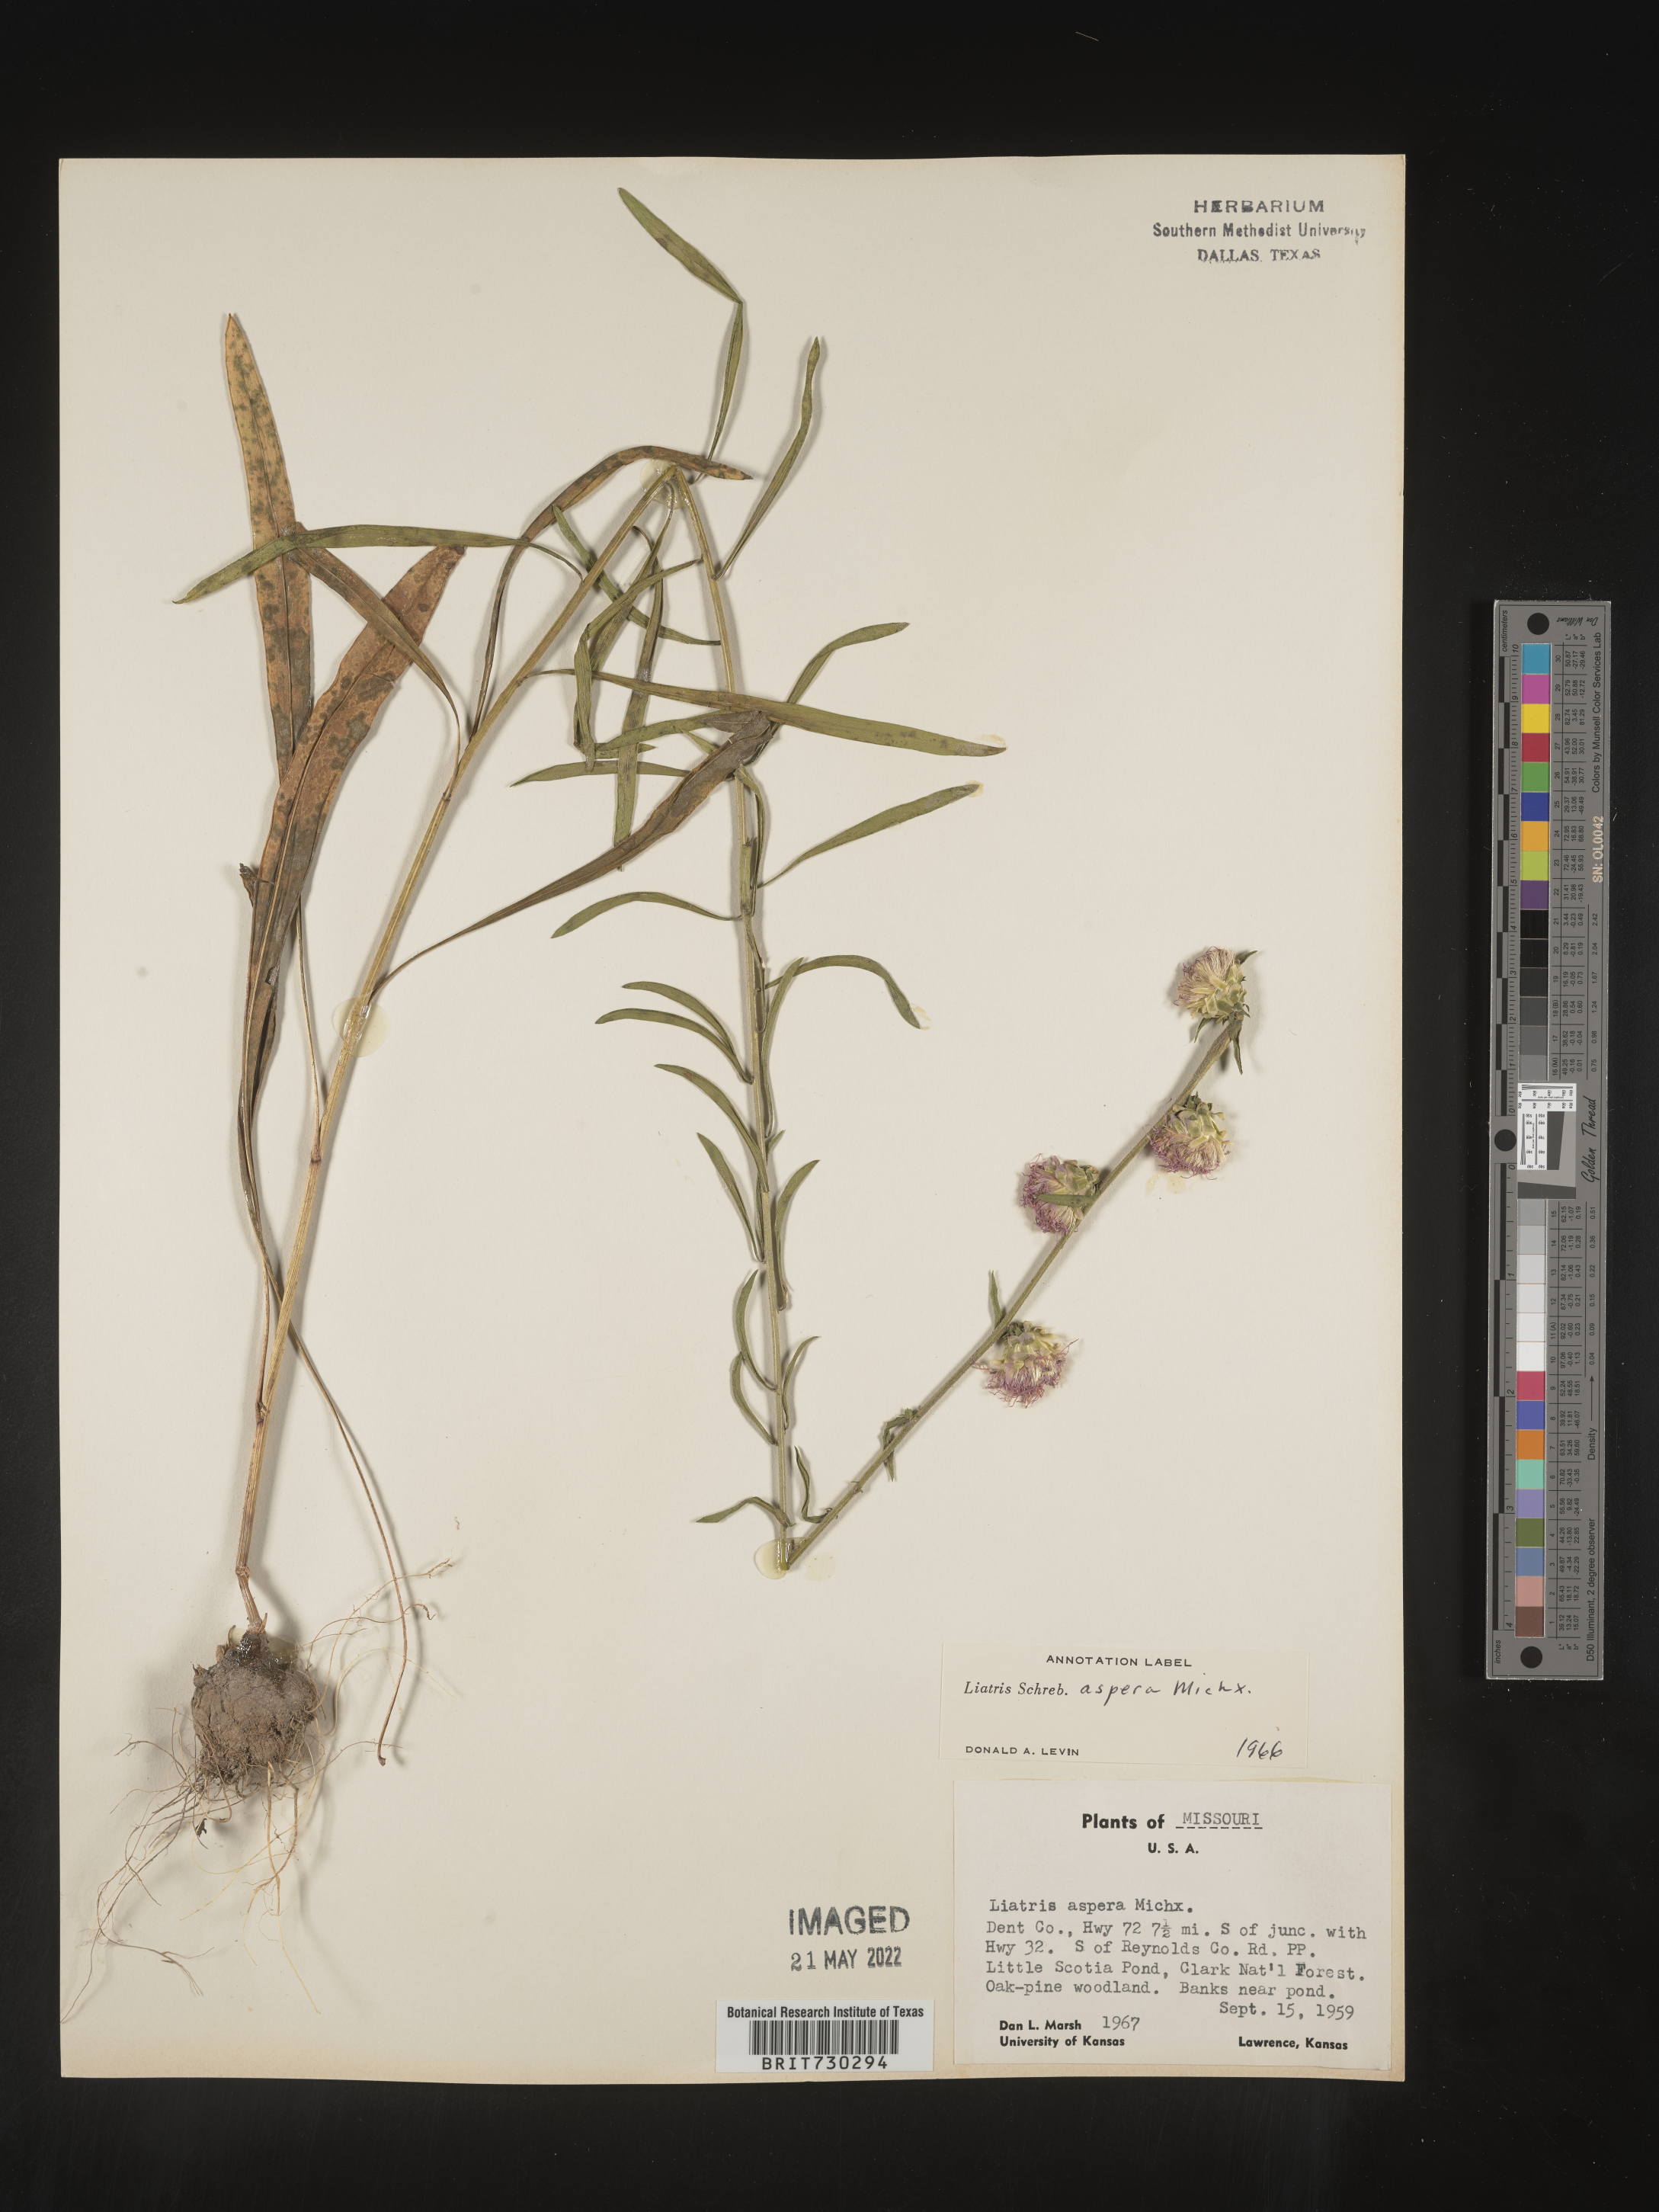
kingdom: Plantae
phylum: Tracheophyta
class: Magnoliopsida
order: Asterales
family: Asteraceae
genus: Liatris
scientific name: Liatris aspera
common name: Lacerate blazing-star
